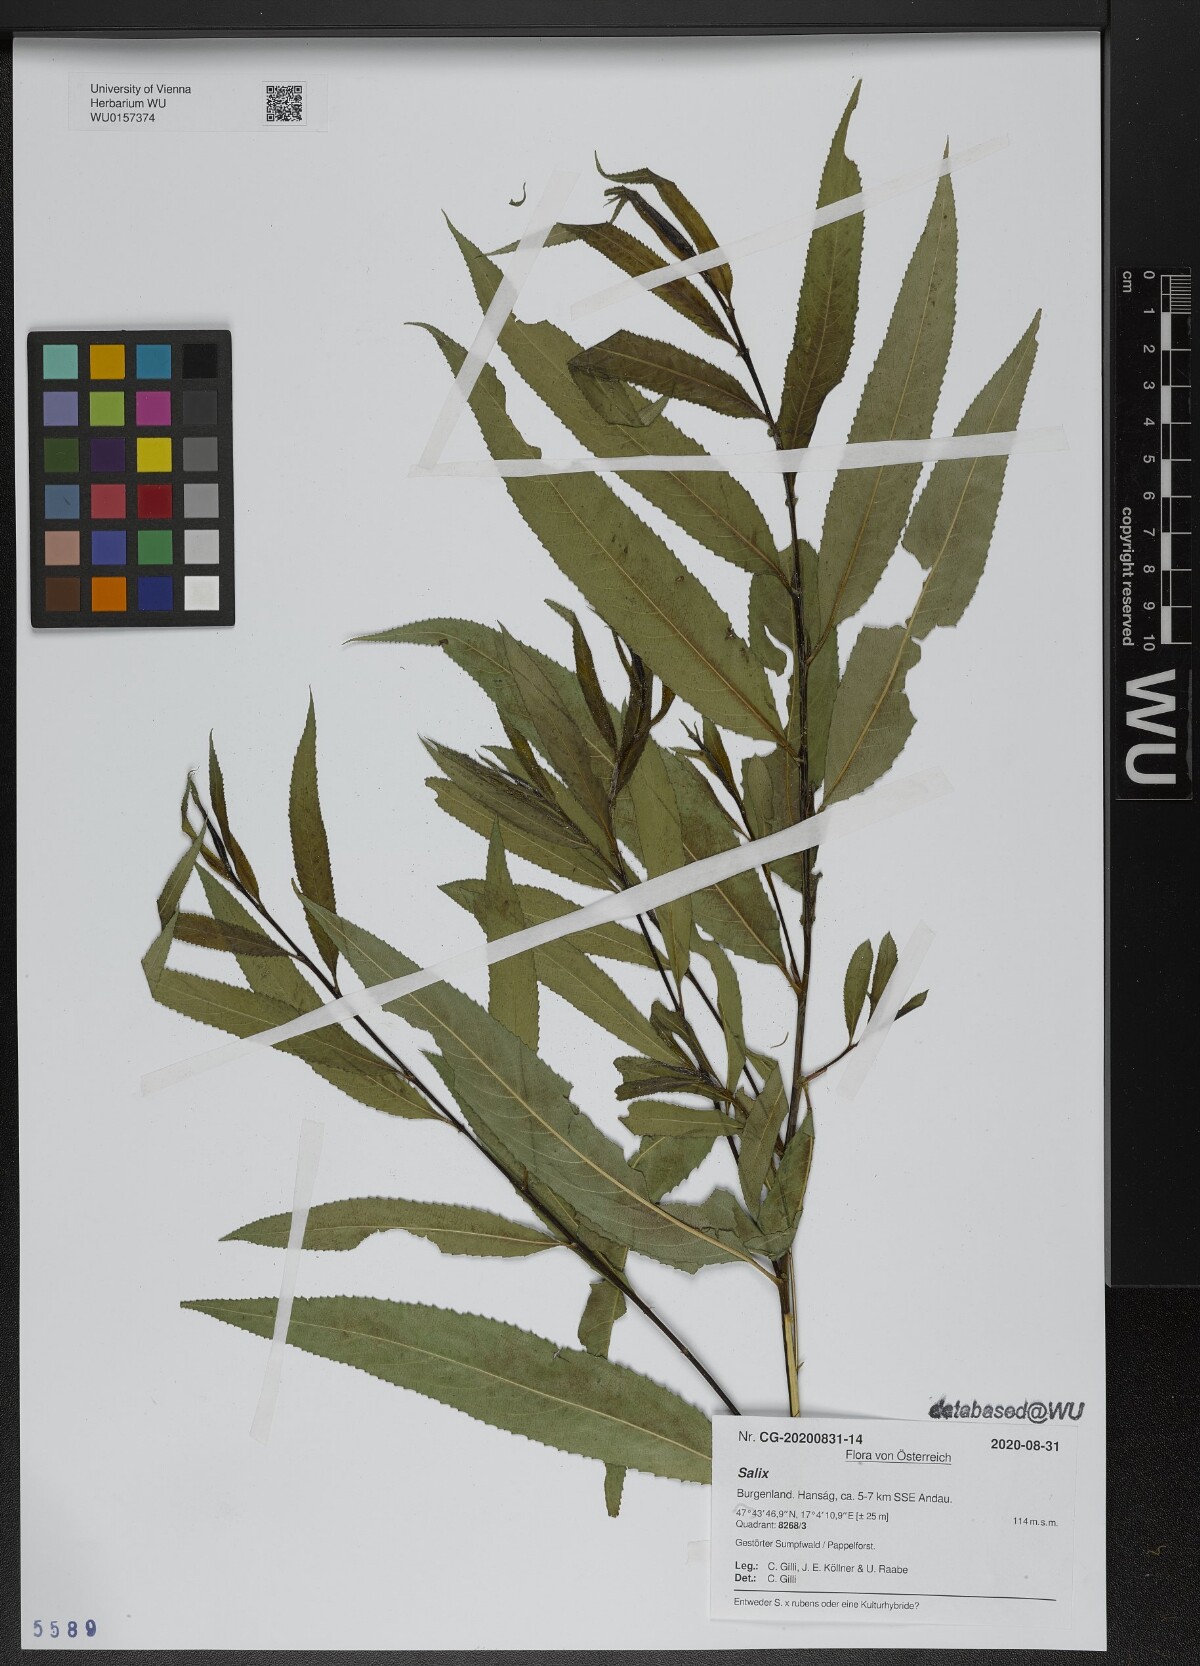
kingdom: Plantae
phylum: Tracheophyta
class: Magnoliopsida
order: Malpighiales
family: Salicaceae
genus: Salix
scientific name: Salix
